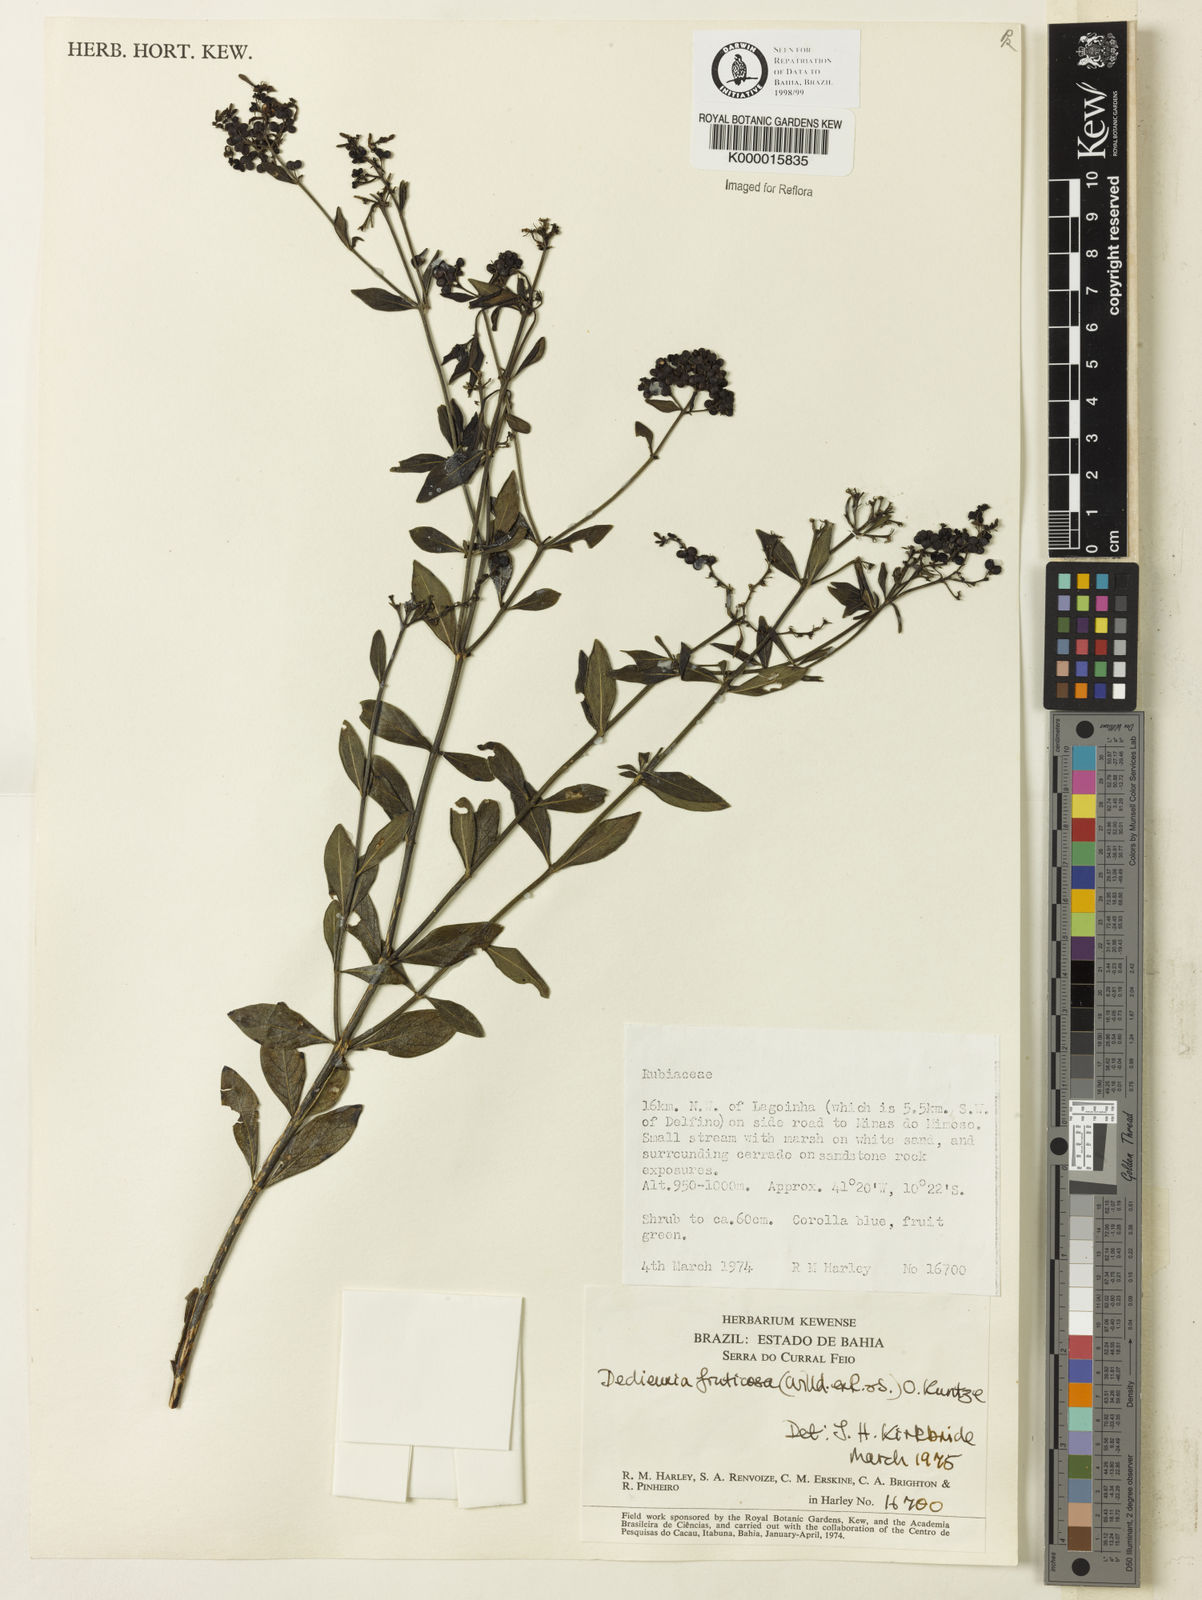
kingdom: Plantae
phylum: Tracheophyta
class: Magnoliopsida
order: Gentianales
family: Rubiaceae
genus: Declieuxia
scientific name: Declieuxia fruticosa
